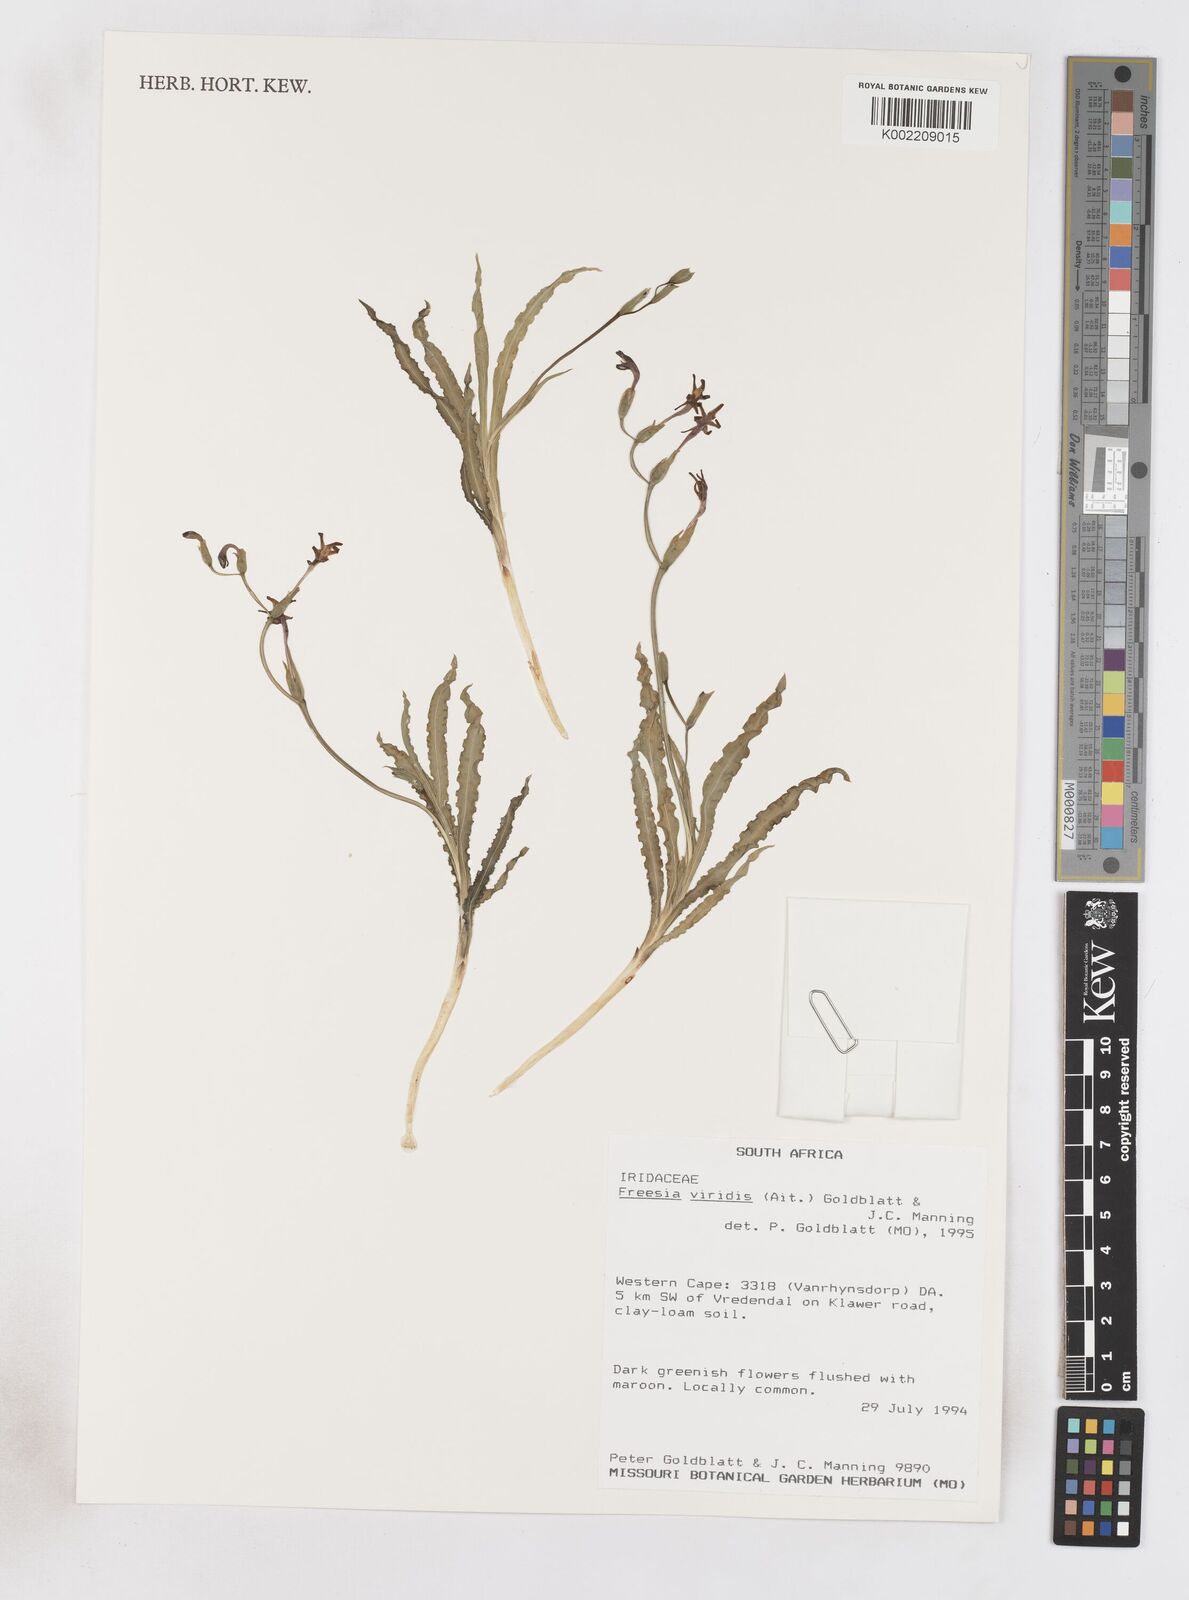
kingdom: Plantae
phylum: Tracheophyta
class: Liliopsida
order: Asparagales
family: Iridaceae
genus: Freesia
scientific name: Freesia viridis
